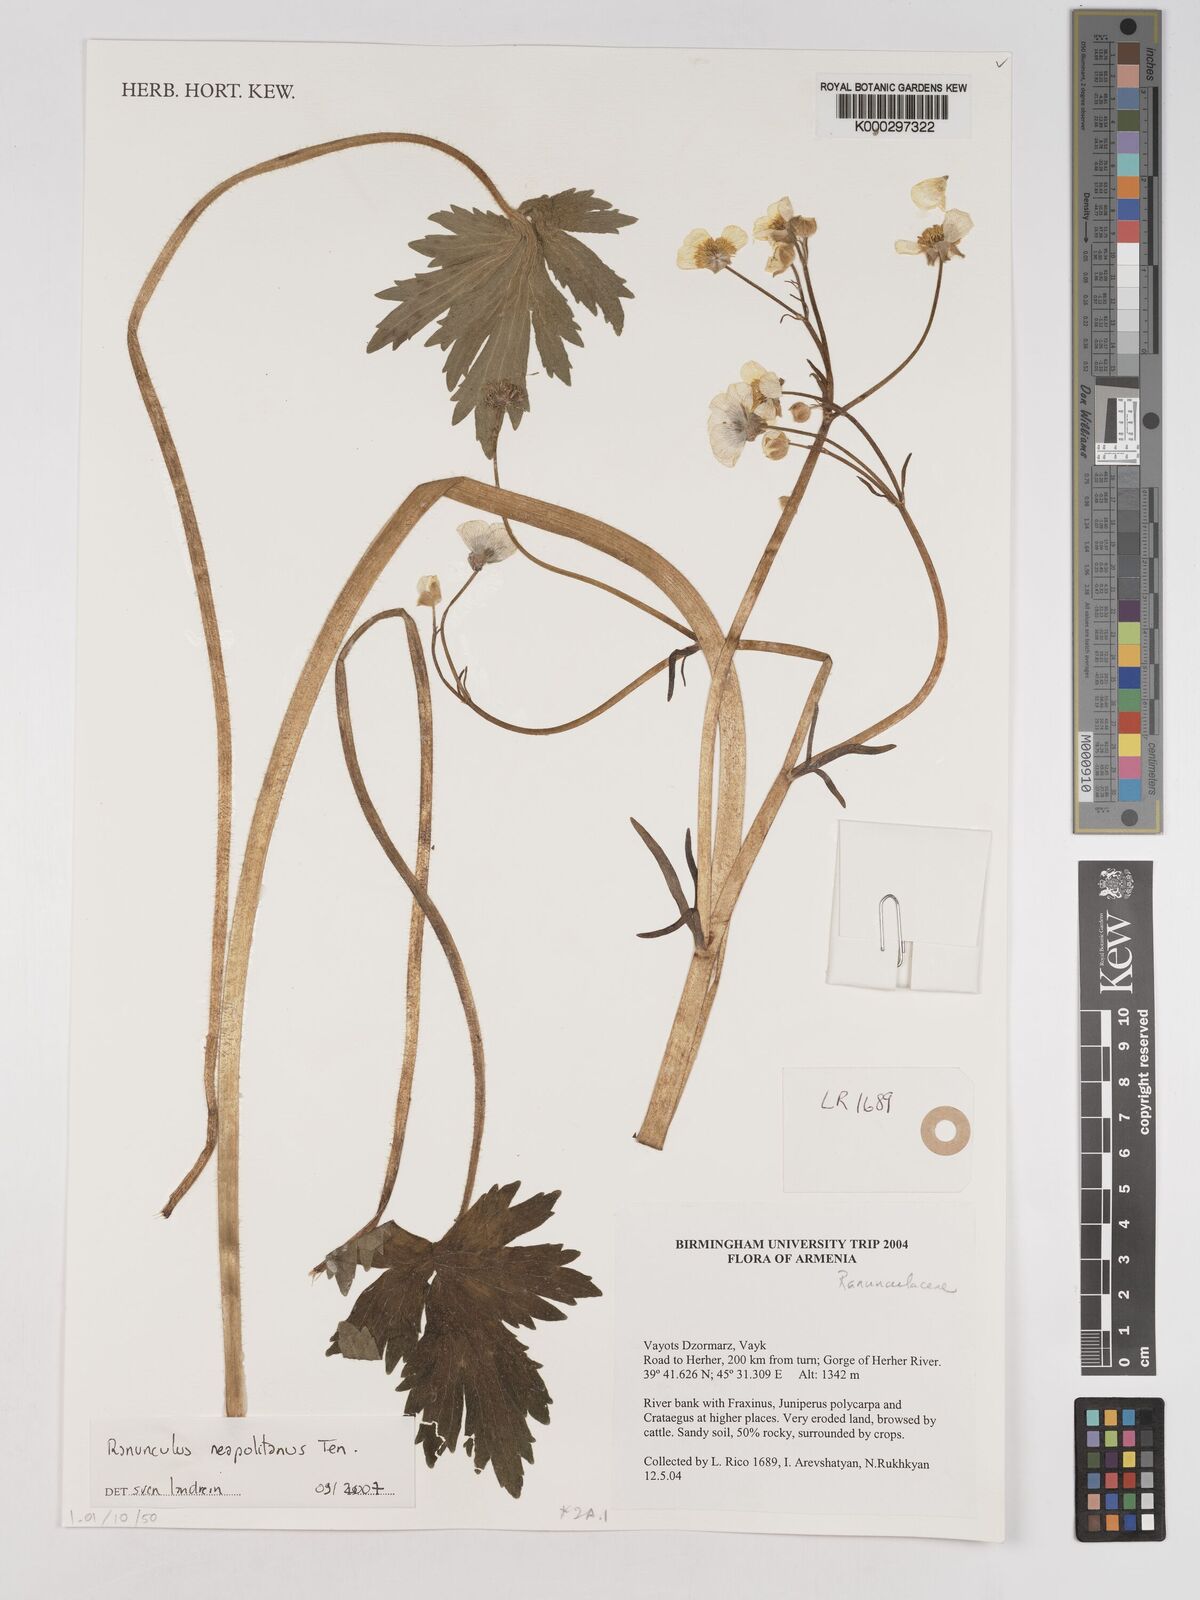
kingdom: Plantae
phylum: Tracheophyta
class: Magnoliopsida
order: Ranunculales
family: Ranunculaceae
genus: Ranunculus
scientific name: Ranunculus
